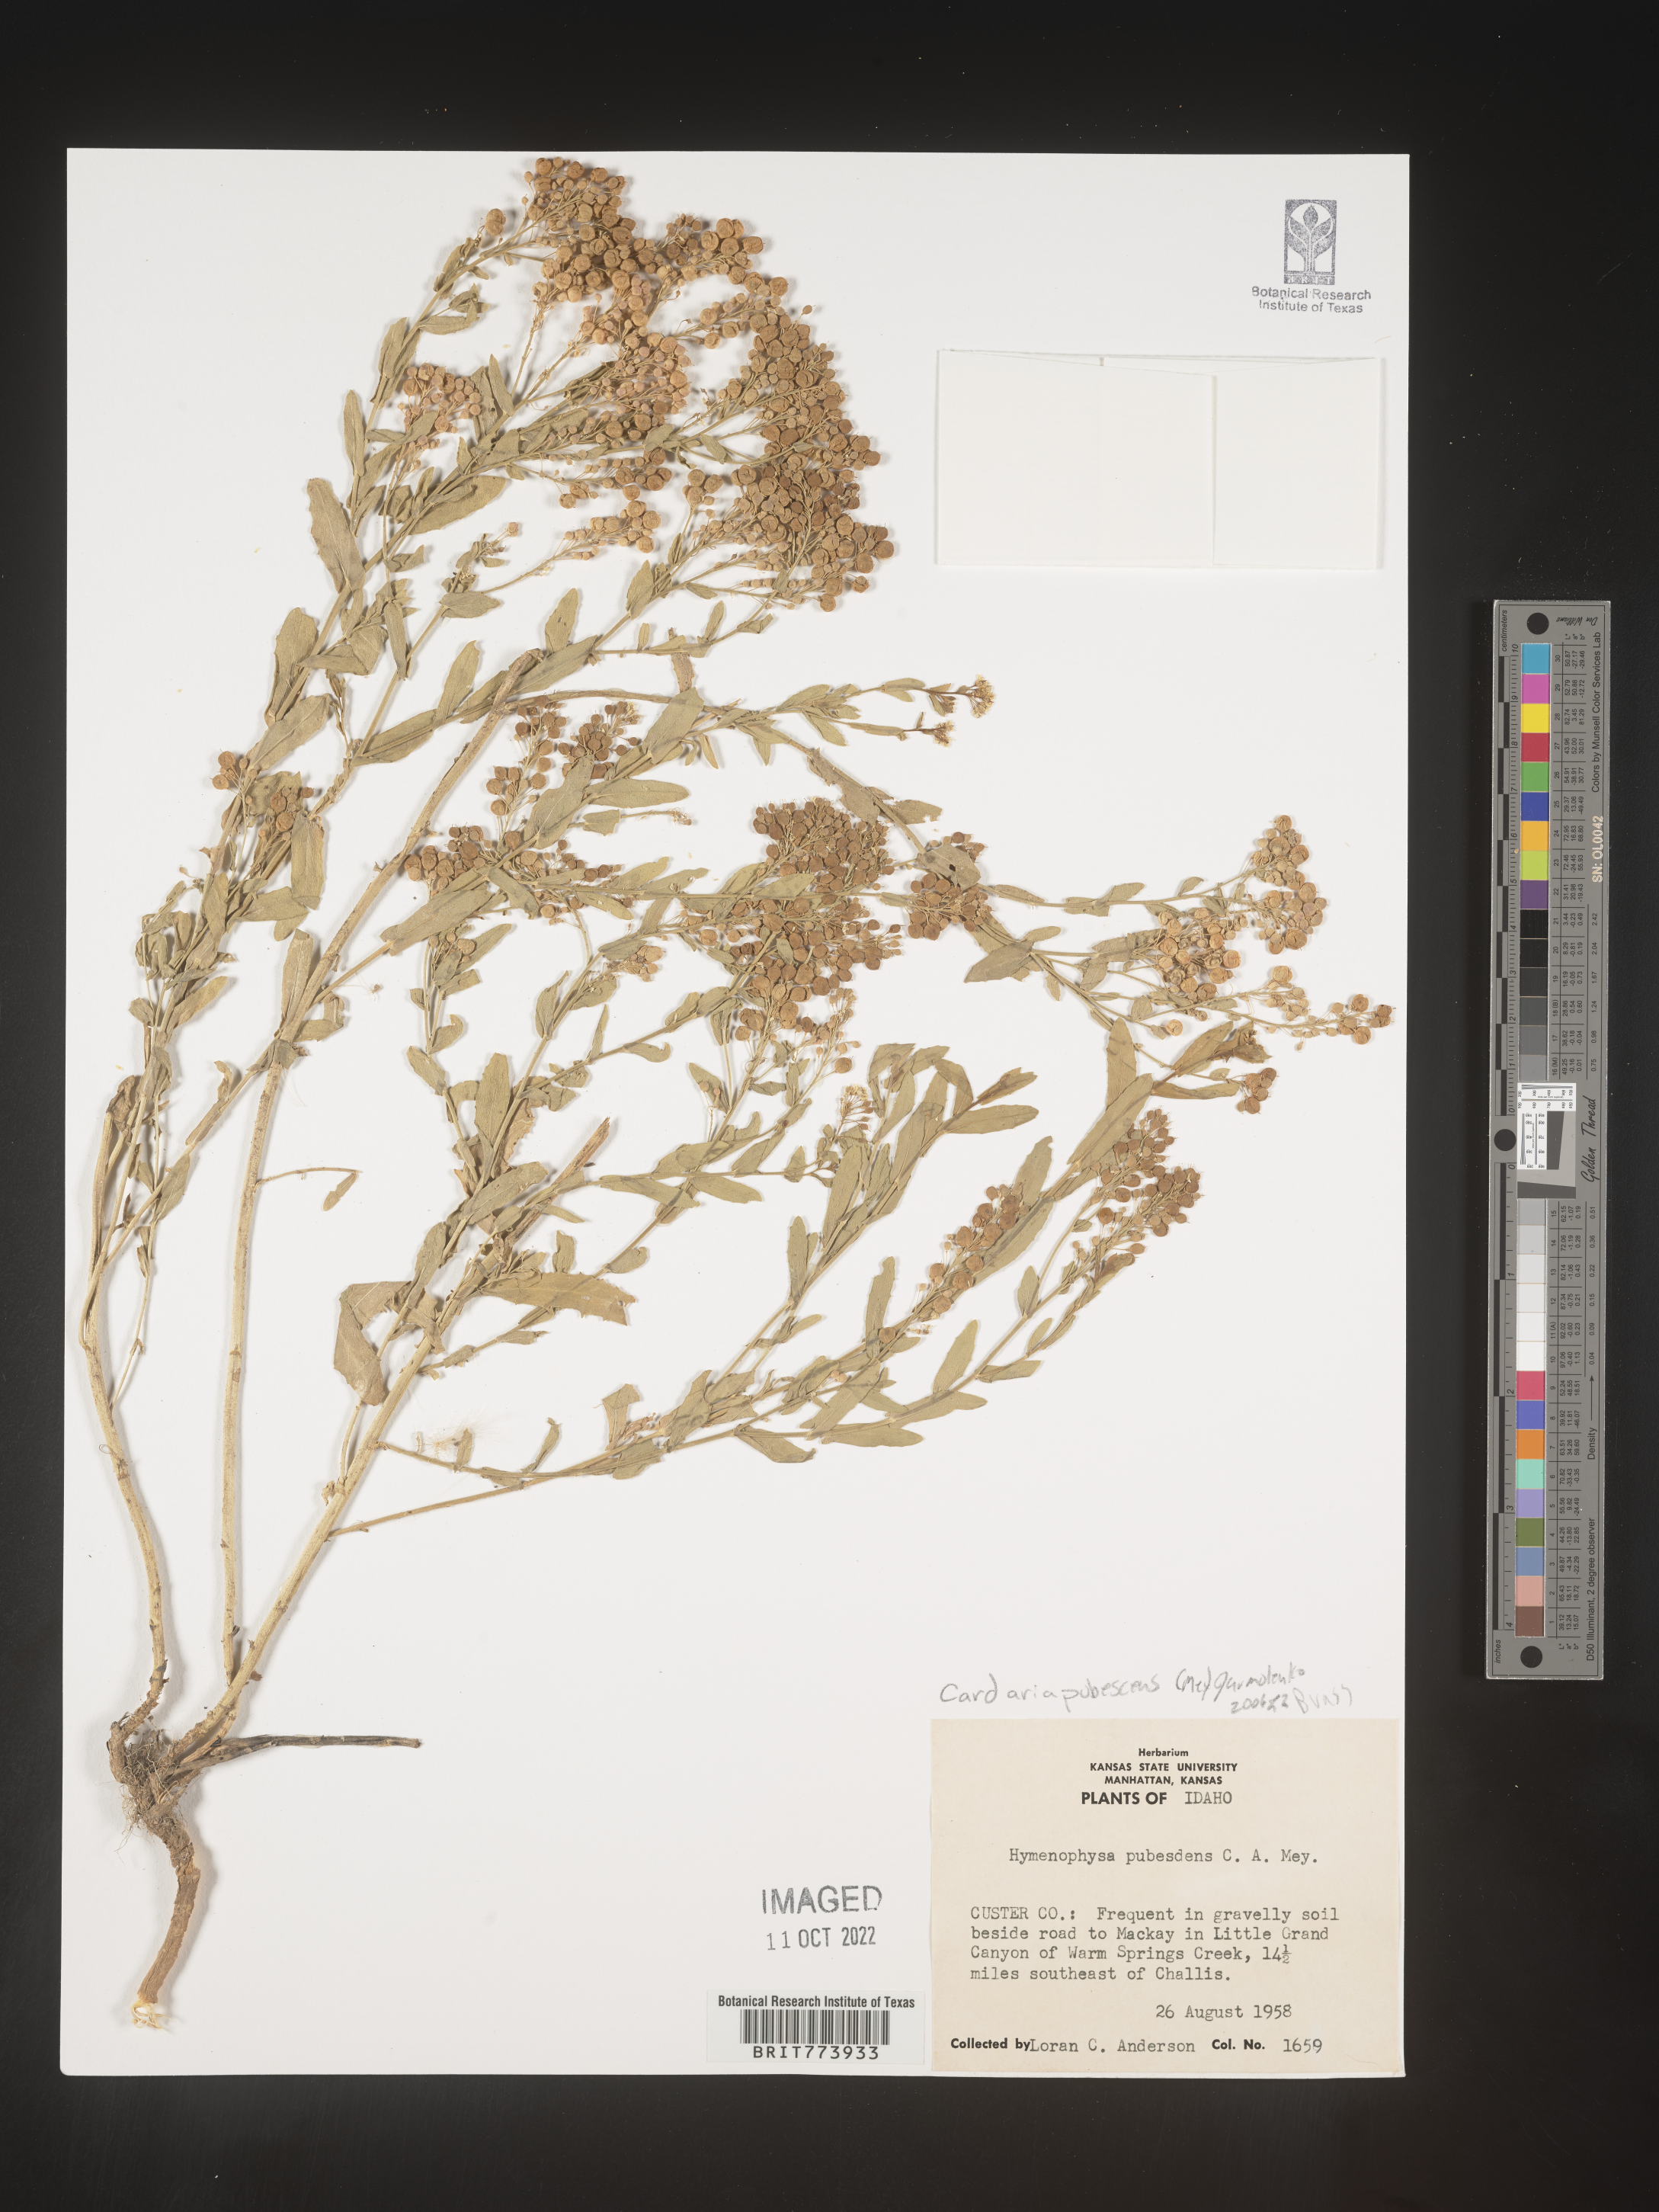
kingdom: Plantae
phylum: Tracheophyta
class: Magnoliopsida
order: Brassicales
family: Brassicaceae
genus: Lepidium
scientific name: Lepidium appelianum
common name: Hairy whitetop
